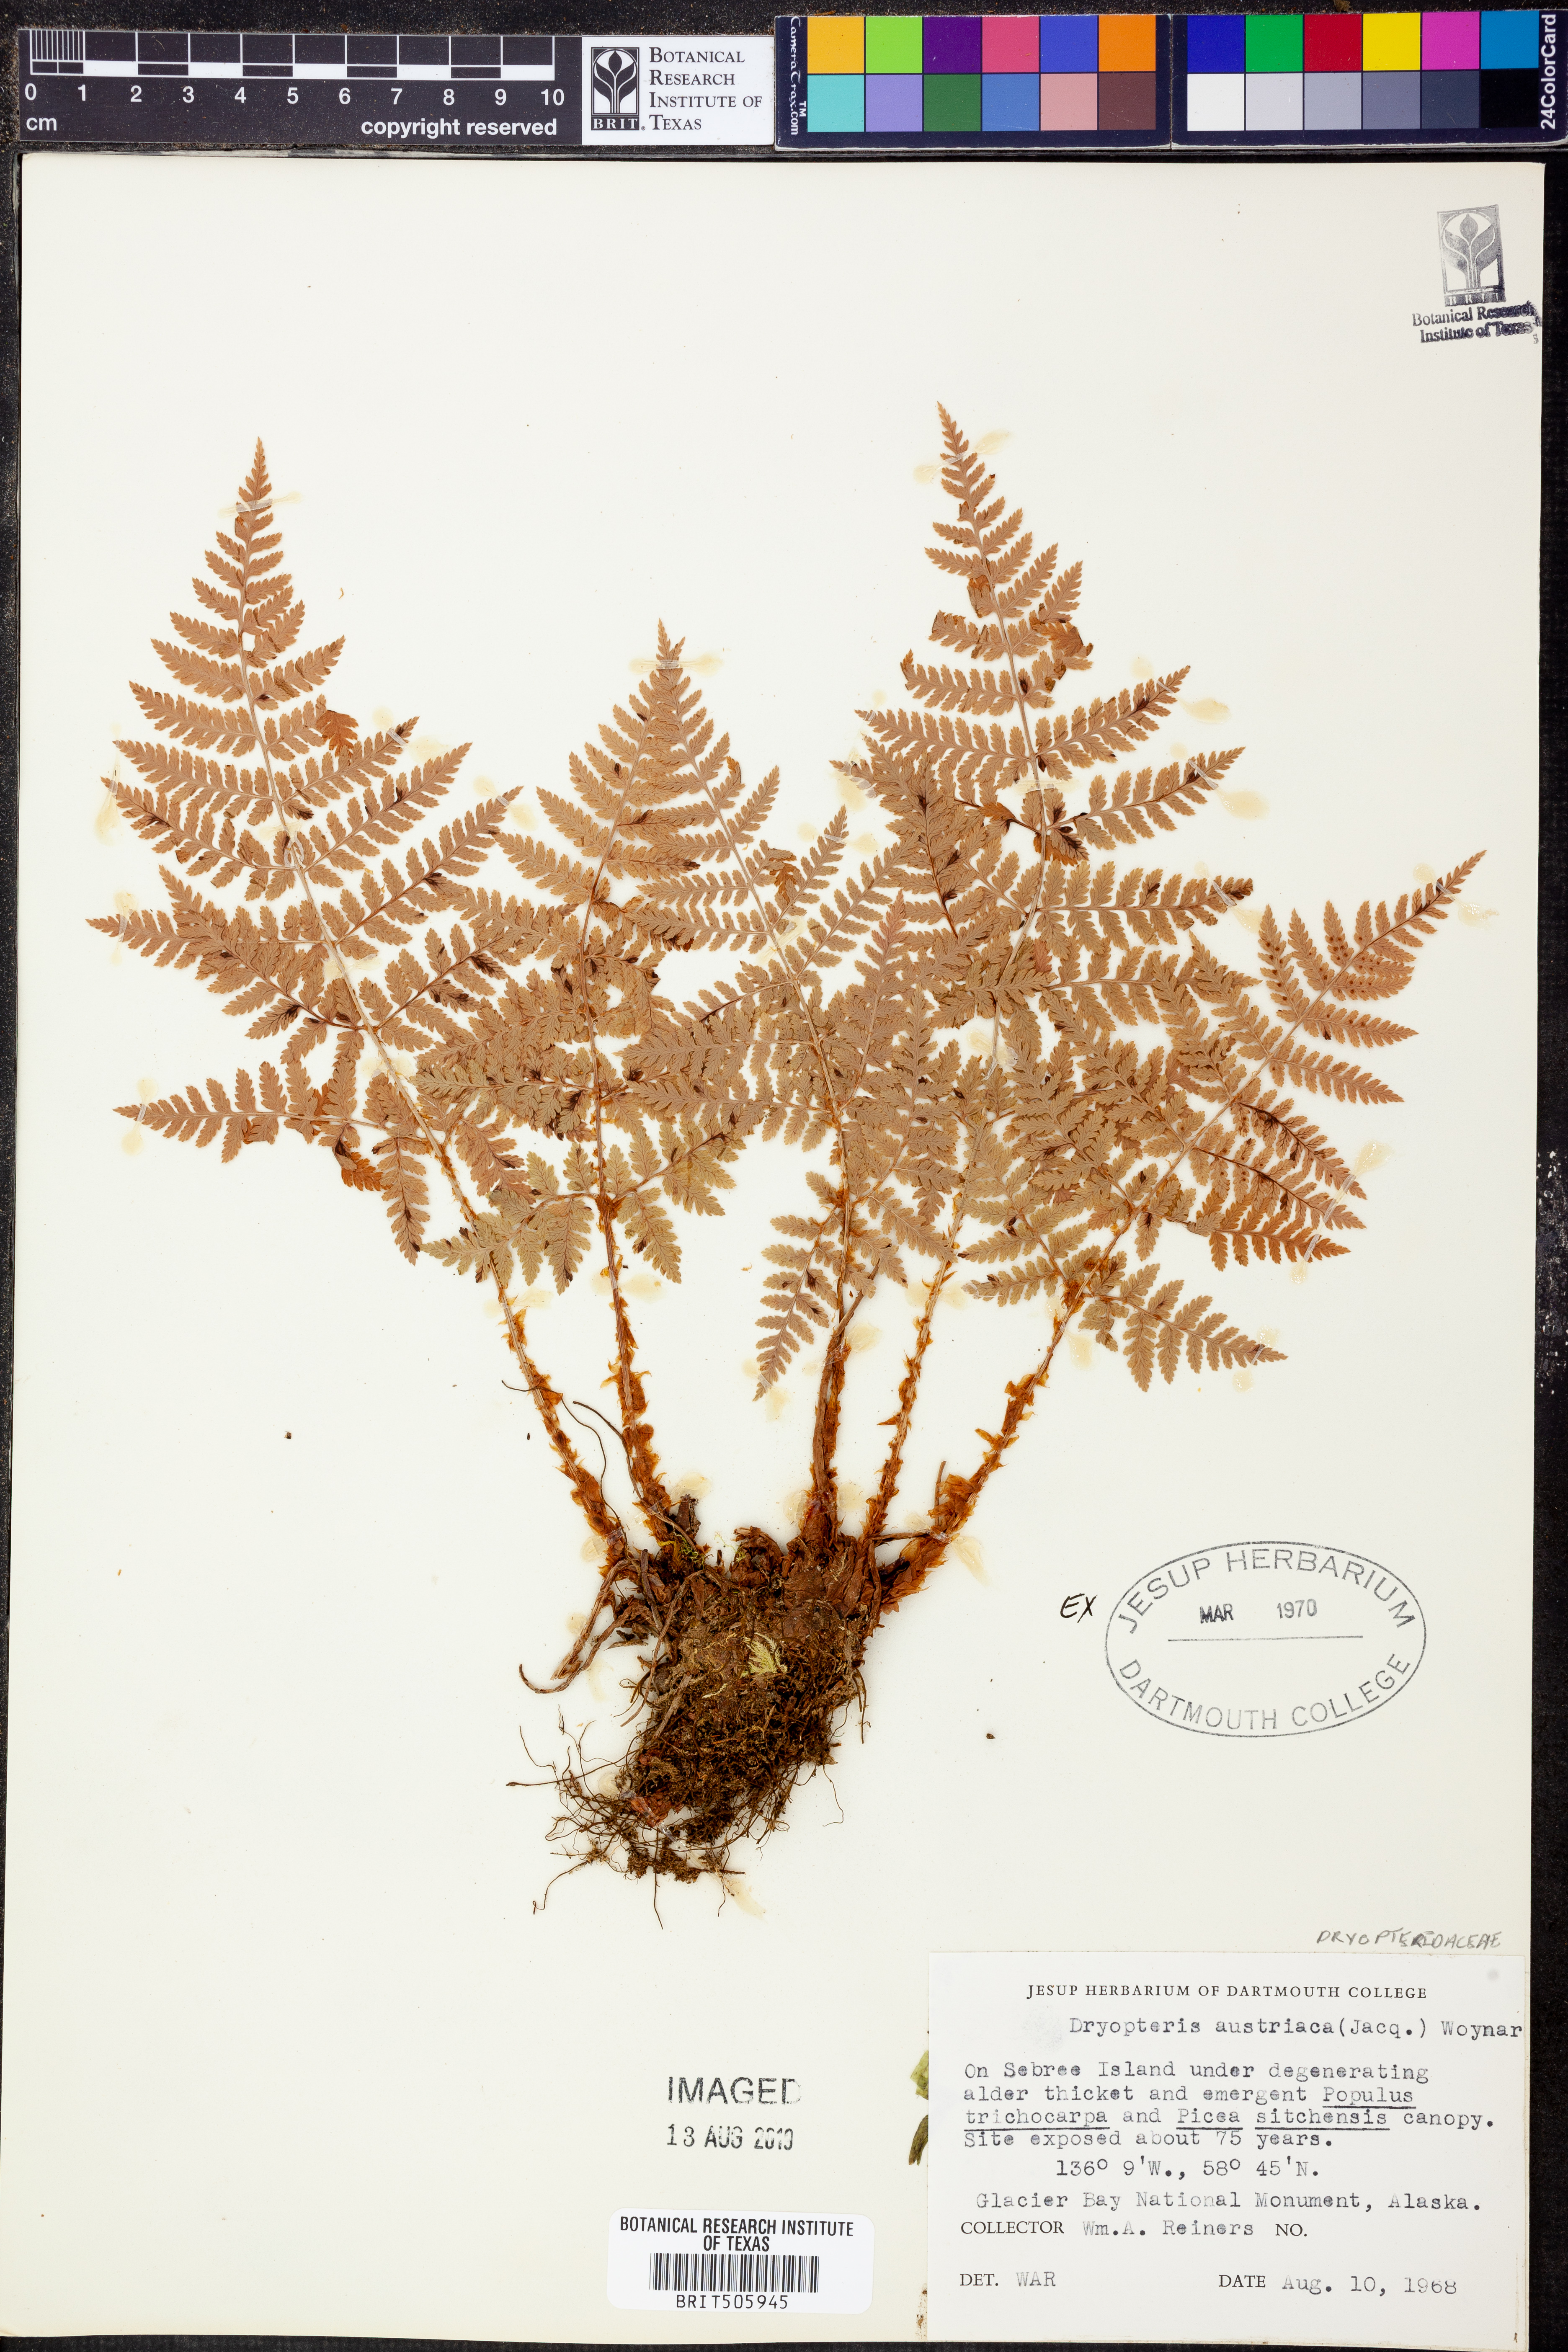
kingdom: Plantae
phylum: Tracheophyta
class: Polypodiopsida
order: Polypodiales
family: Dryopteridaceae
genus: Dryopteris
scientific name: Dryopteris dilatata
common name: Broad buckler-fern
